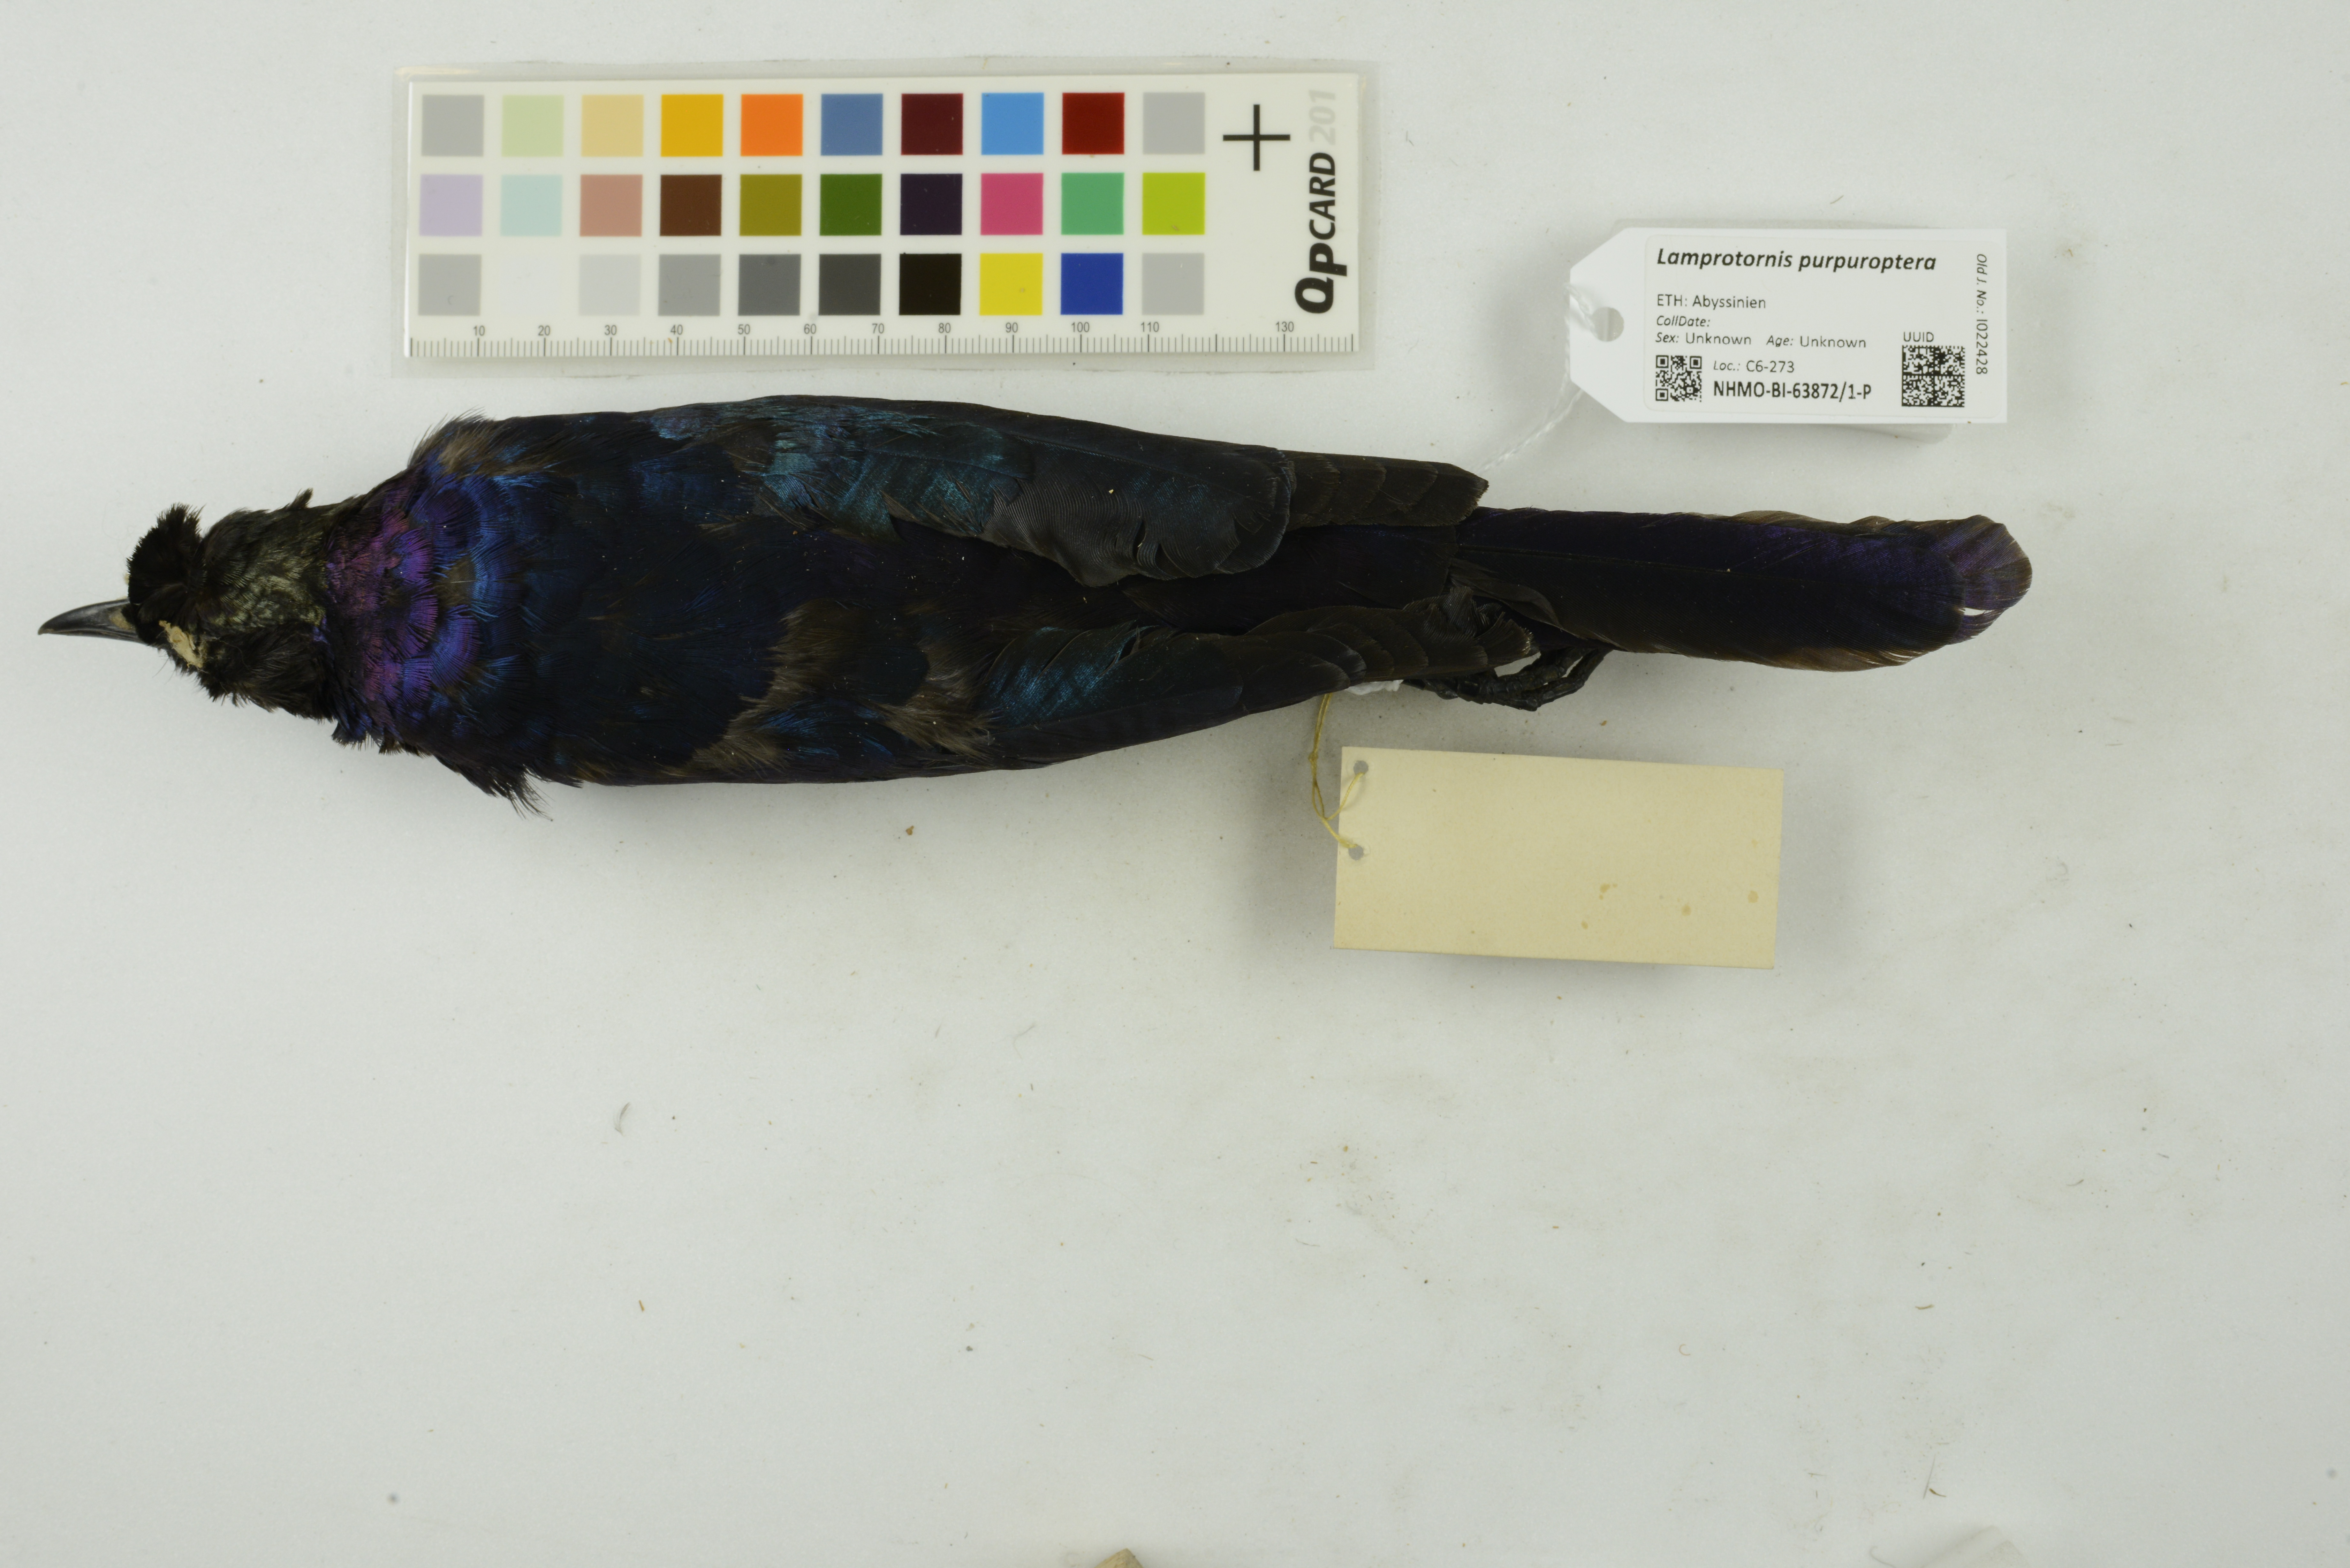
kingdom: Animalia
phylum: Chordata
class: Aves
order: Passeriformes
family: Sturnidae
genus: Lamprotornis
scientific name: Lamprotornis purpuroptera
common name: Rüppell's starling
